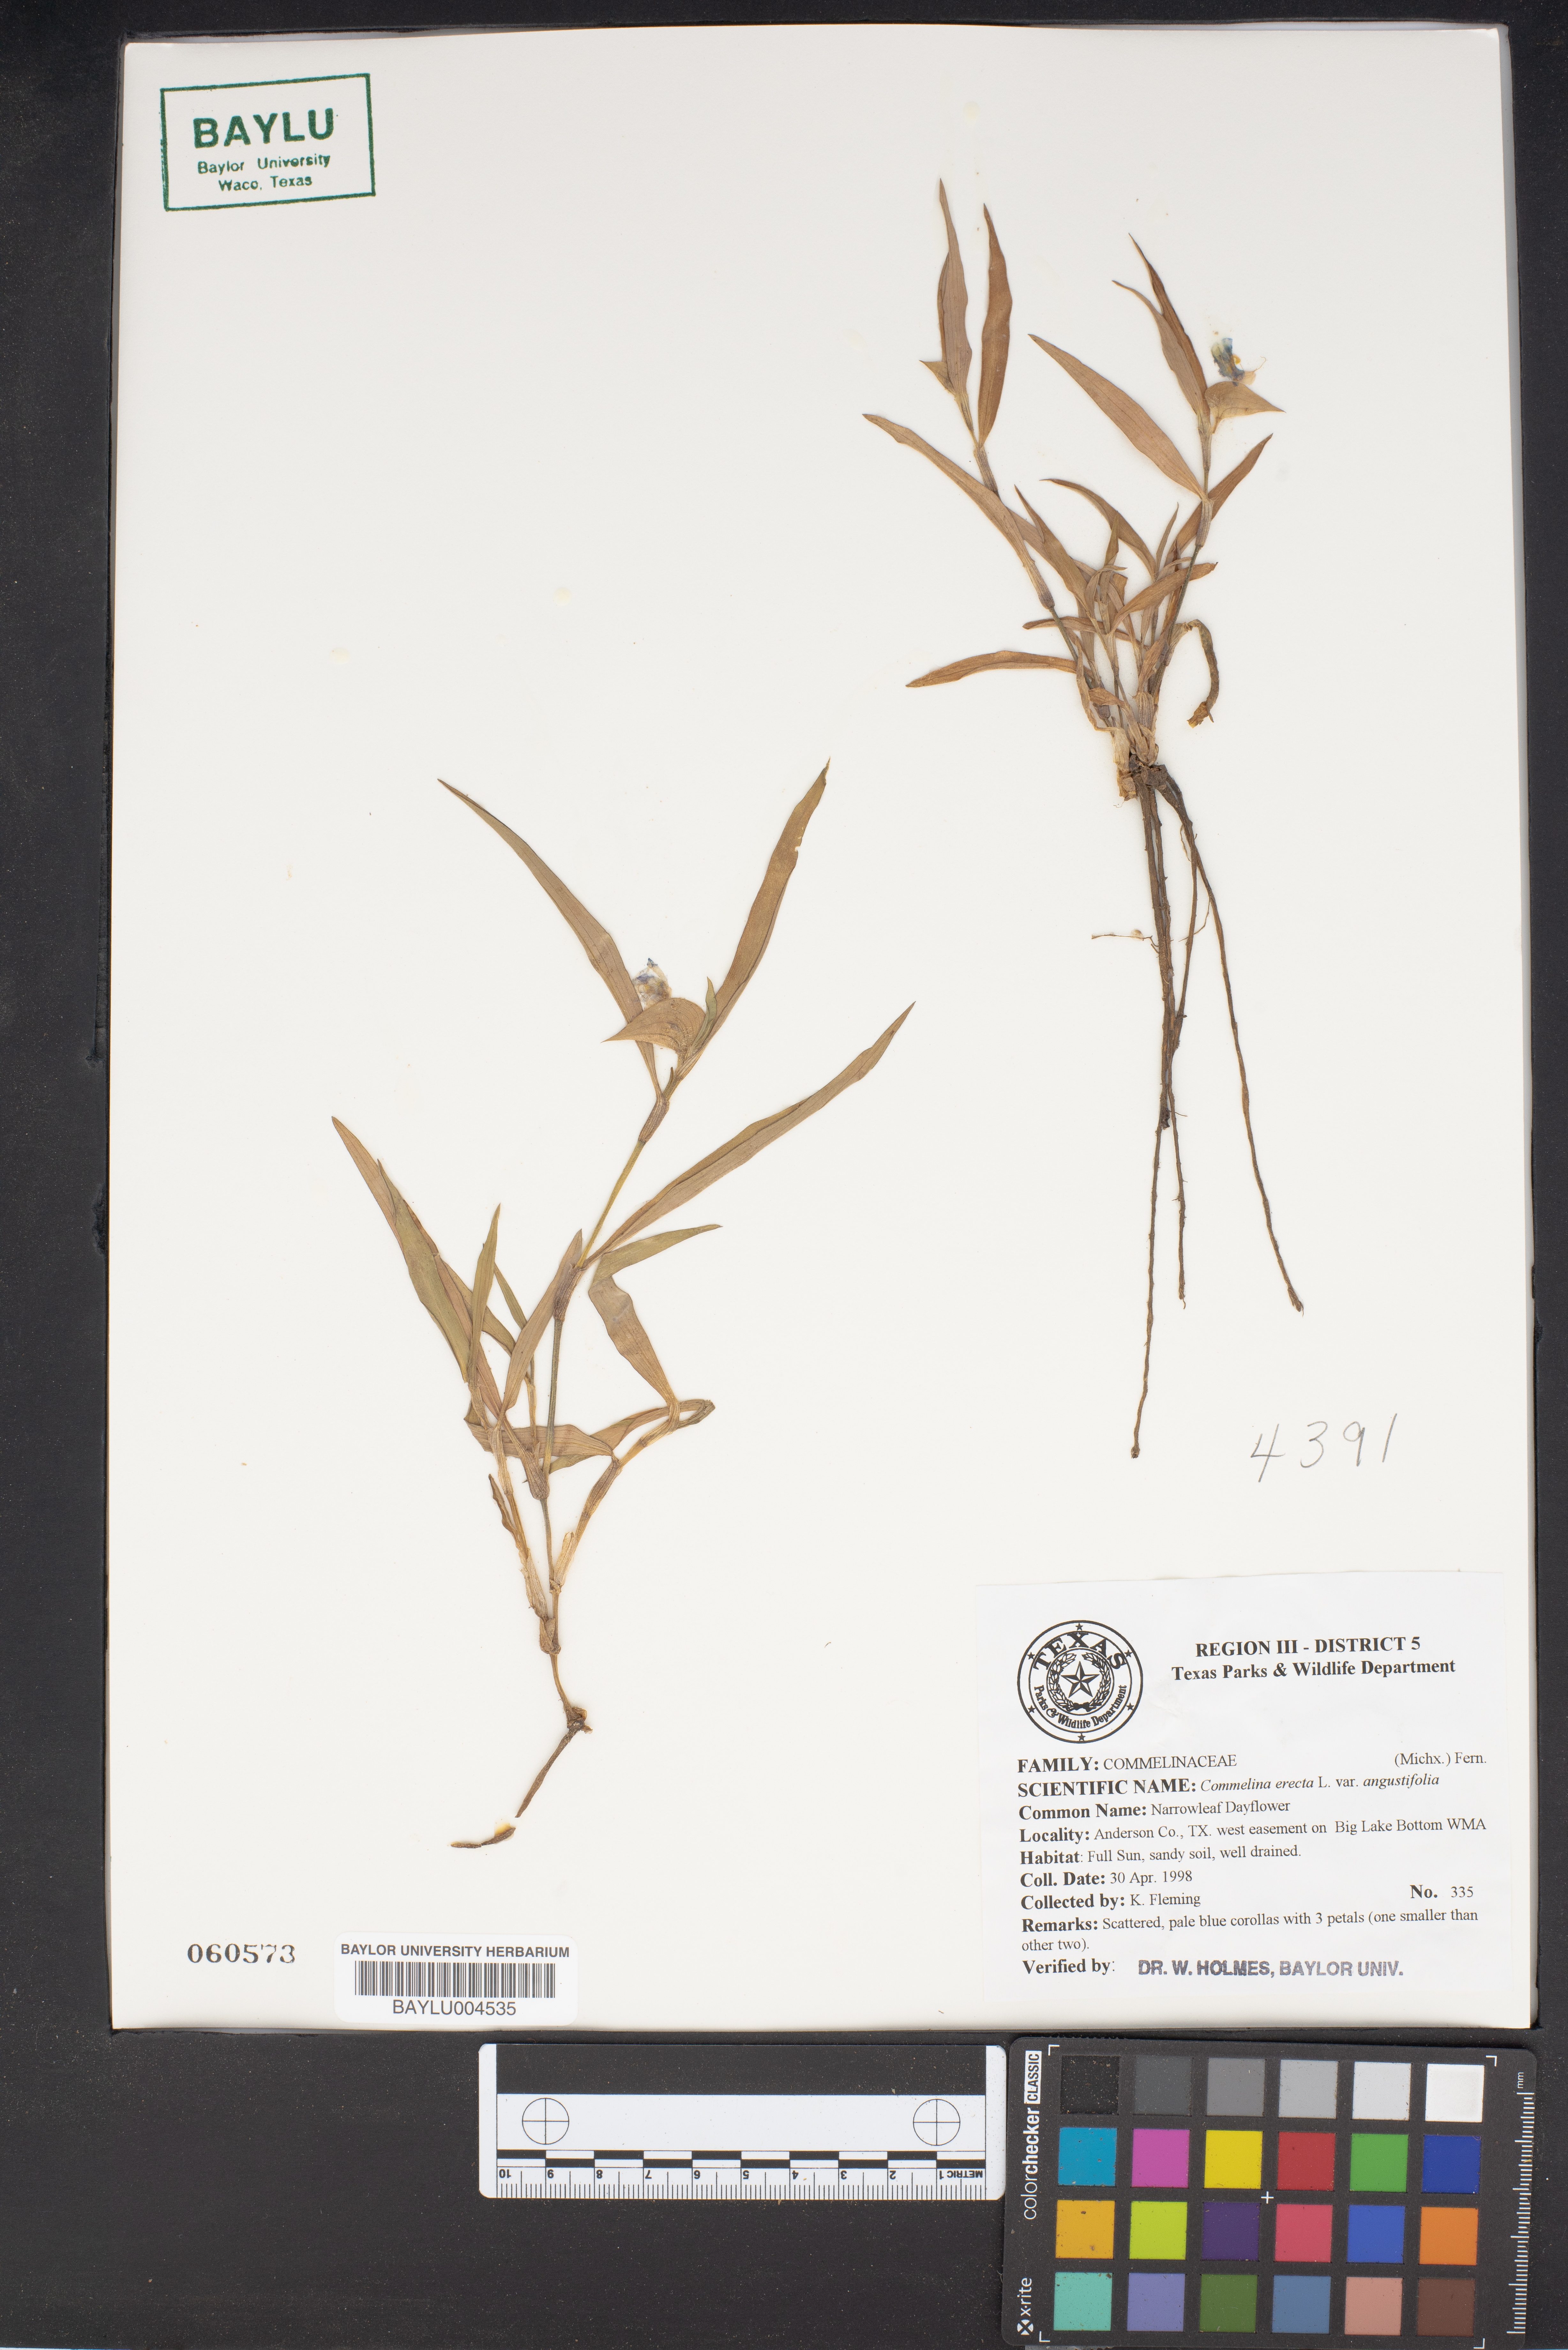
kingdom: Plantae
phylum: Tracheophyta
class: Liliopsida
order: Commelinales
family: Commelinaceae
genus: Commelina
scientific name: Commelina erecta
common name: Blousel blommetjie
